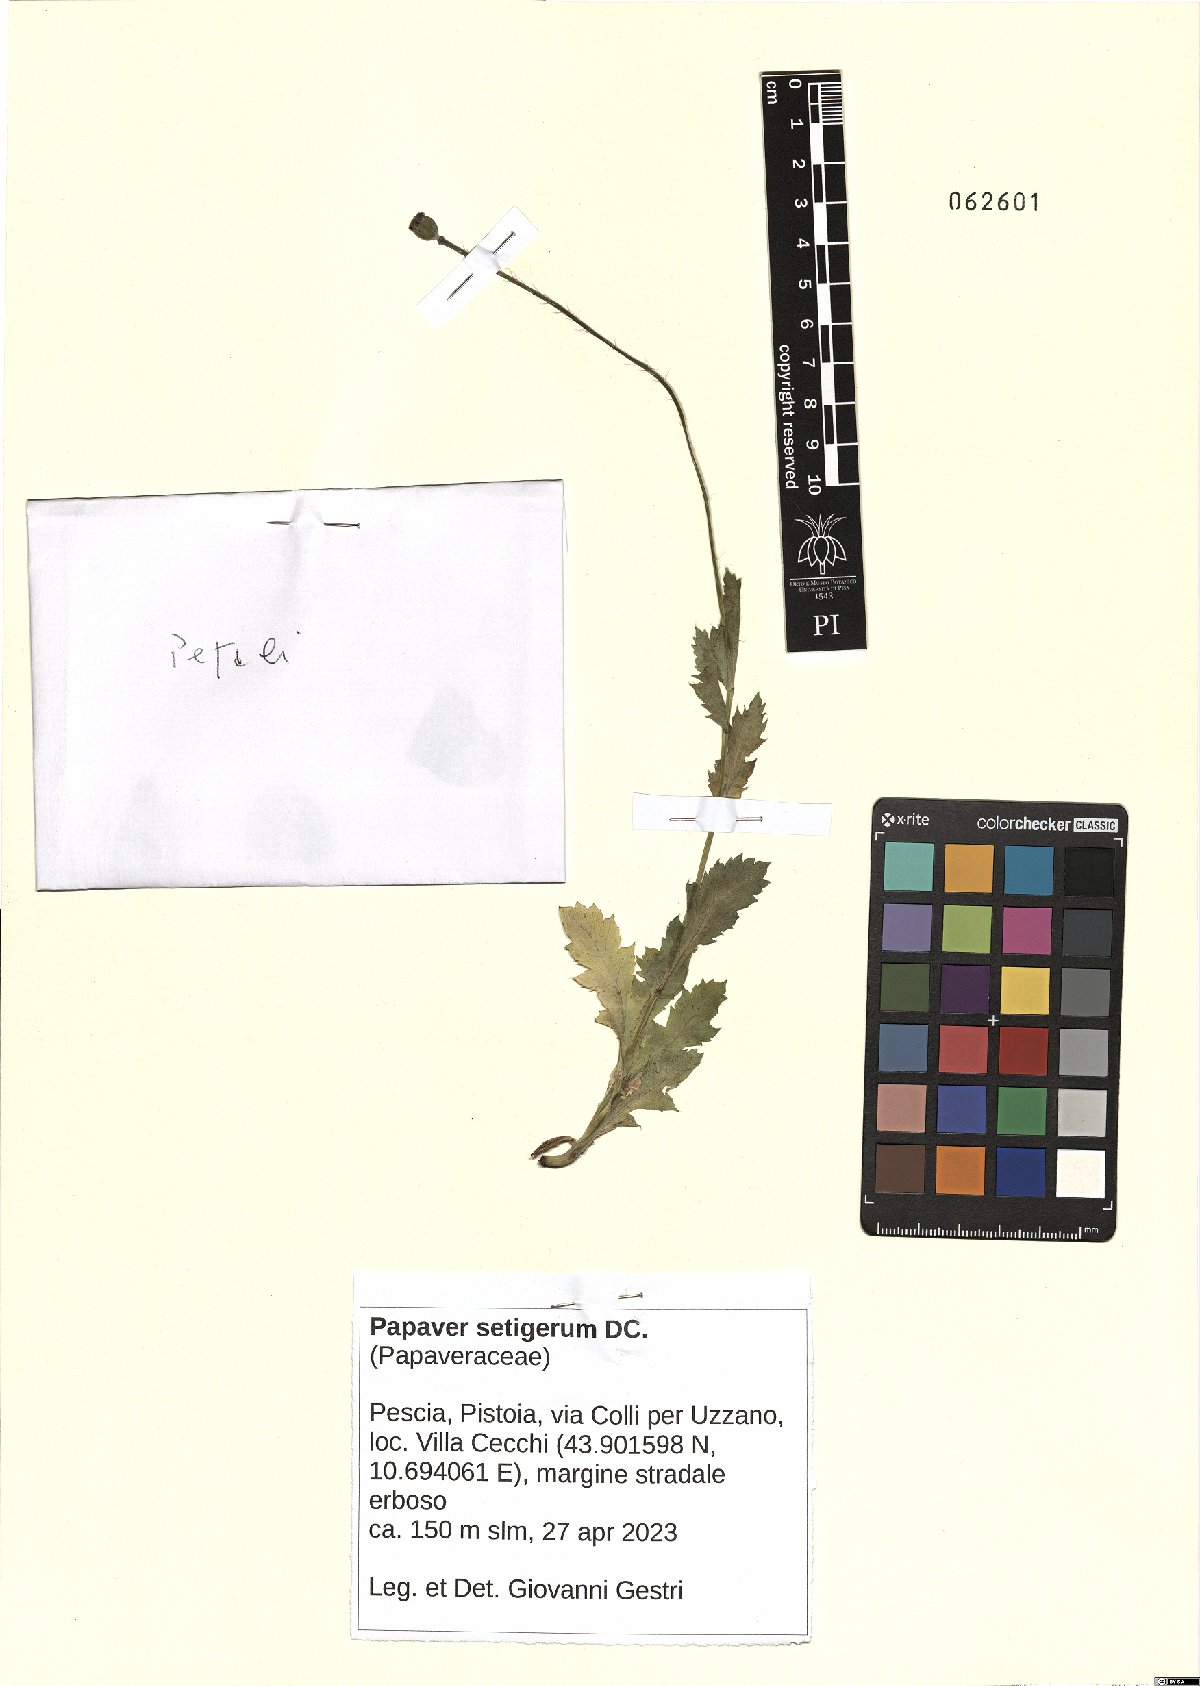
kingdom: Plantae
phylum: Tracheophyta
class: Magnoliopsida
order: Ranunculales
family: Papaveraceae
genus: Papaver
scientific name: Papaver setigerum
